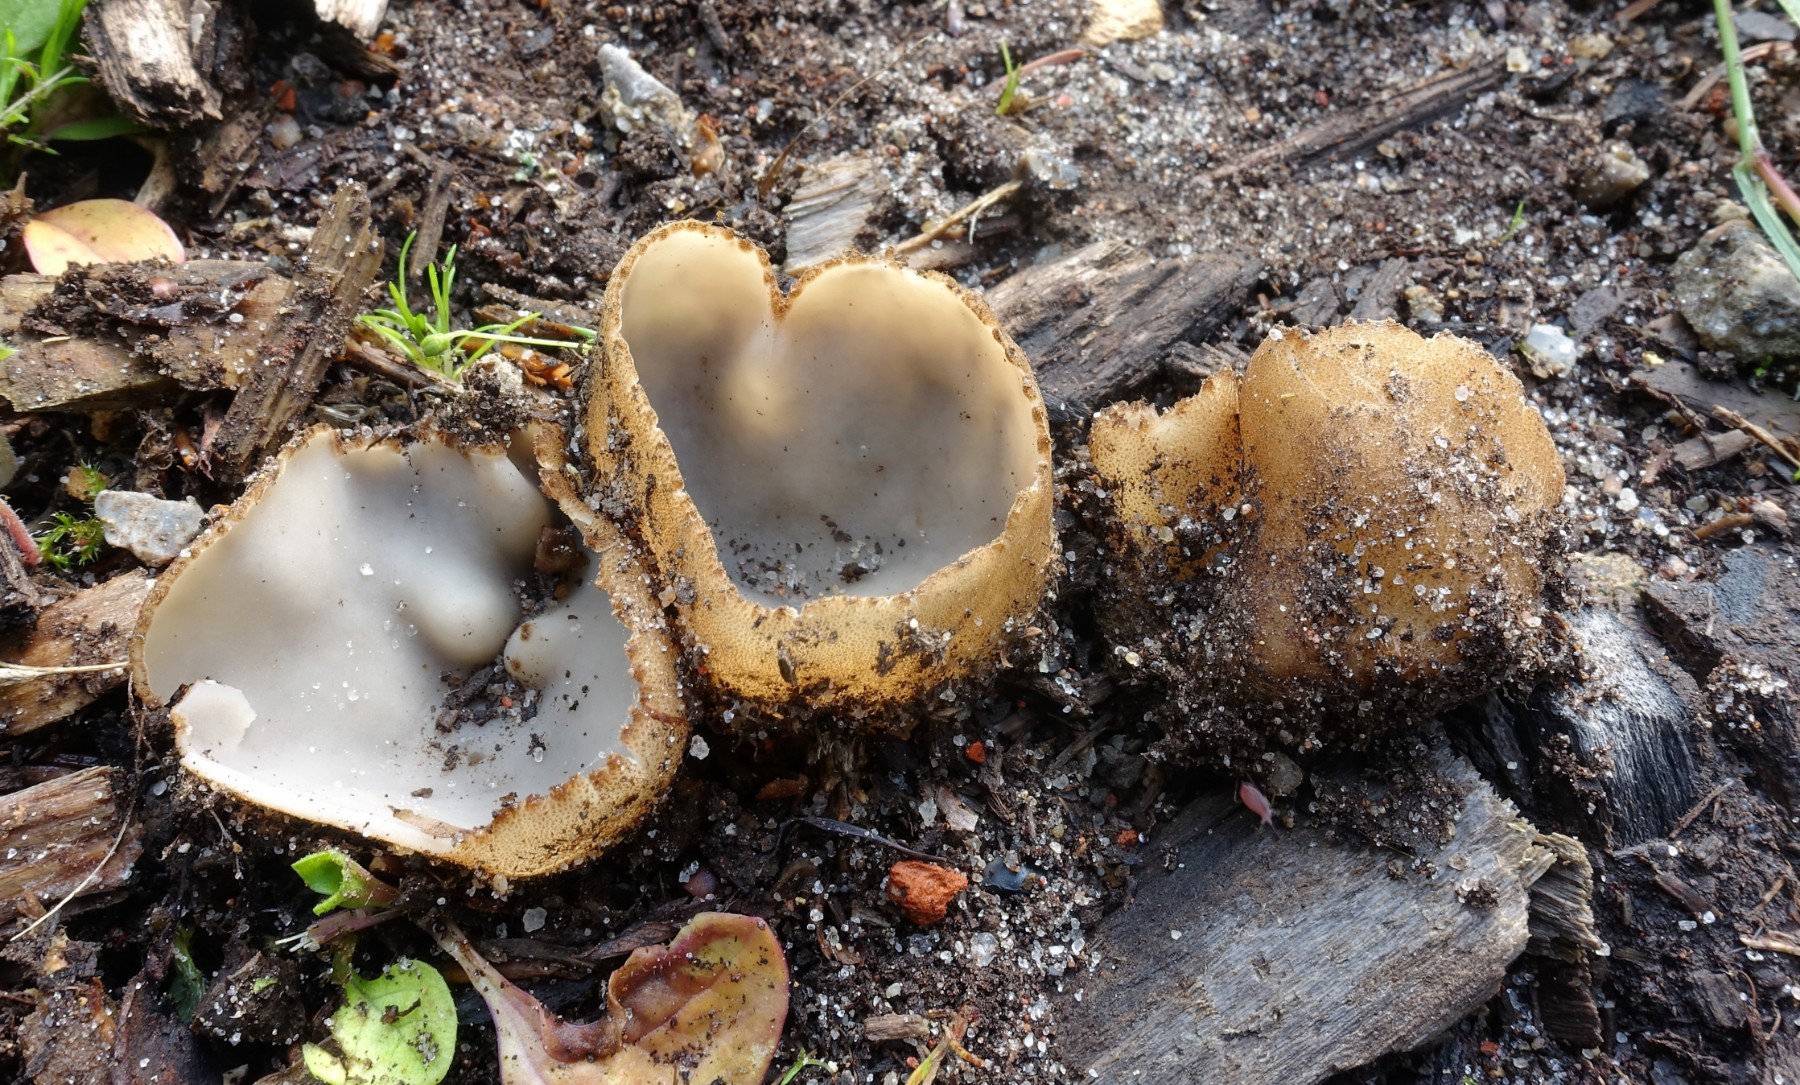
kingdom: Fungi
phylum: Ascomycota
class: Pezizomycetes
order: Pezizales
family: Pyronemataceae
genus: Humaria
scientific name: Humaria hemisphaerica
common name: halvkugleformet børstebæger
